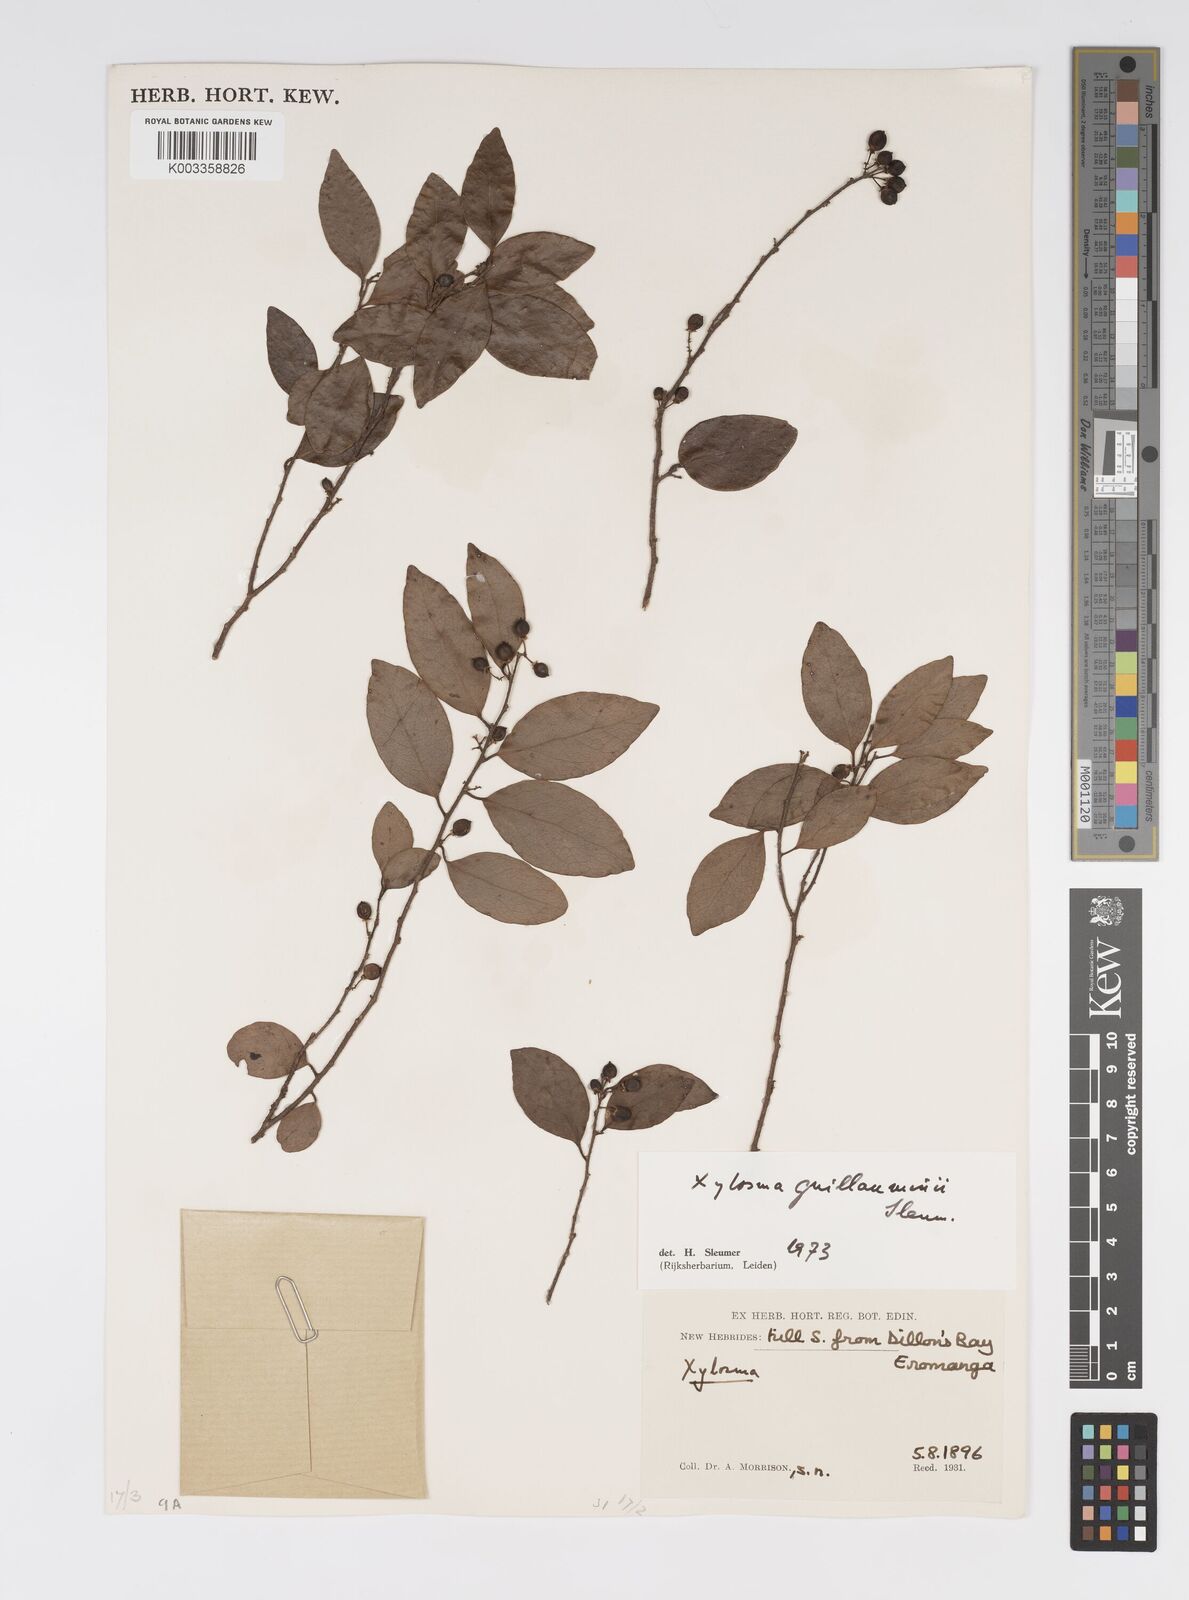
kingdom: Plantae
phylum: Tracheophyta
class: Magnoliopsida
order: Malpighiales
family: Salicaceae
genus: Xylosma
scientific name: Xylosma lifuana
